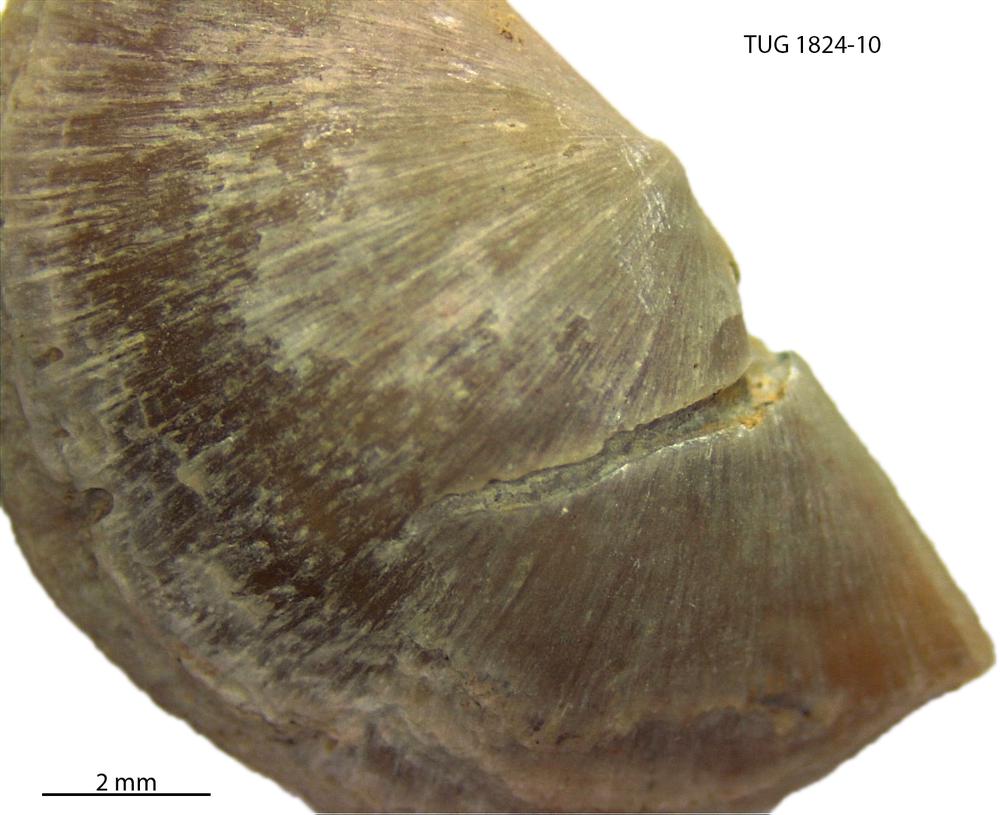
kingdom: Animalia
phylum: Brachiopoda
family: Sowerbyellidae
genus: Sowerbyella
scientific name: Sowerbyella
